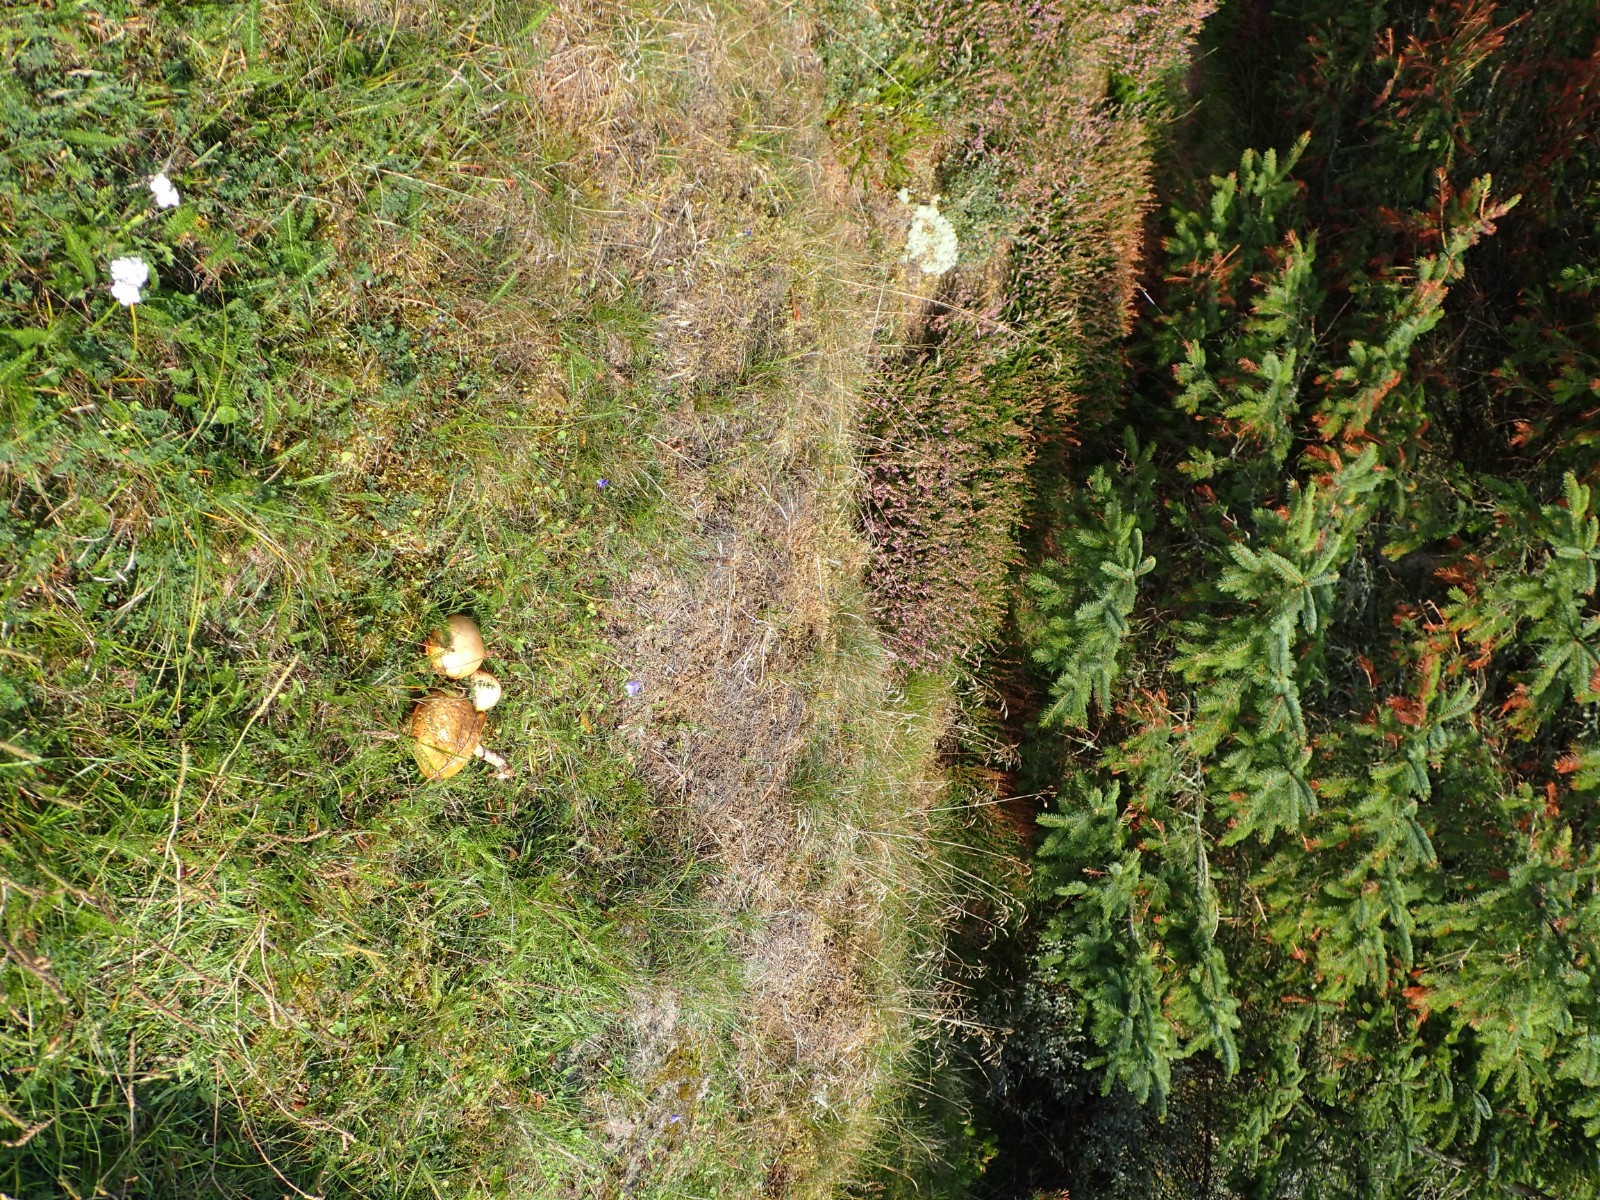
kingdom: Fungi
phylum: Basidiomycota
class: Agaricomycetes
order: Boletales
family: Suillaceae
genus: Suillus
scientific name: Suillus luteus
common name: brungul slimrørhat
